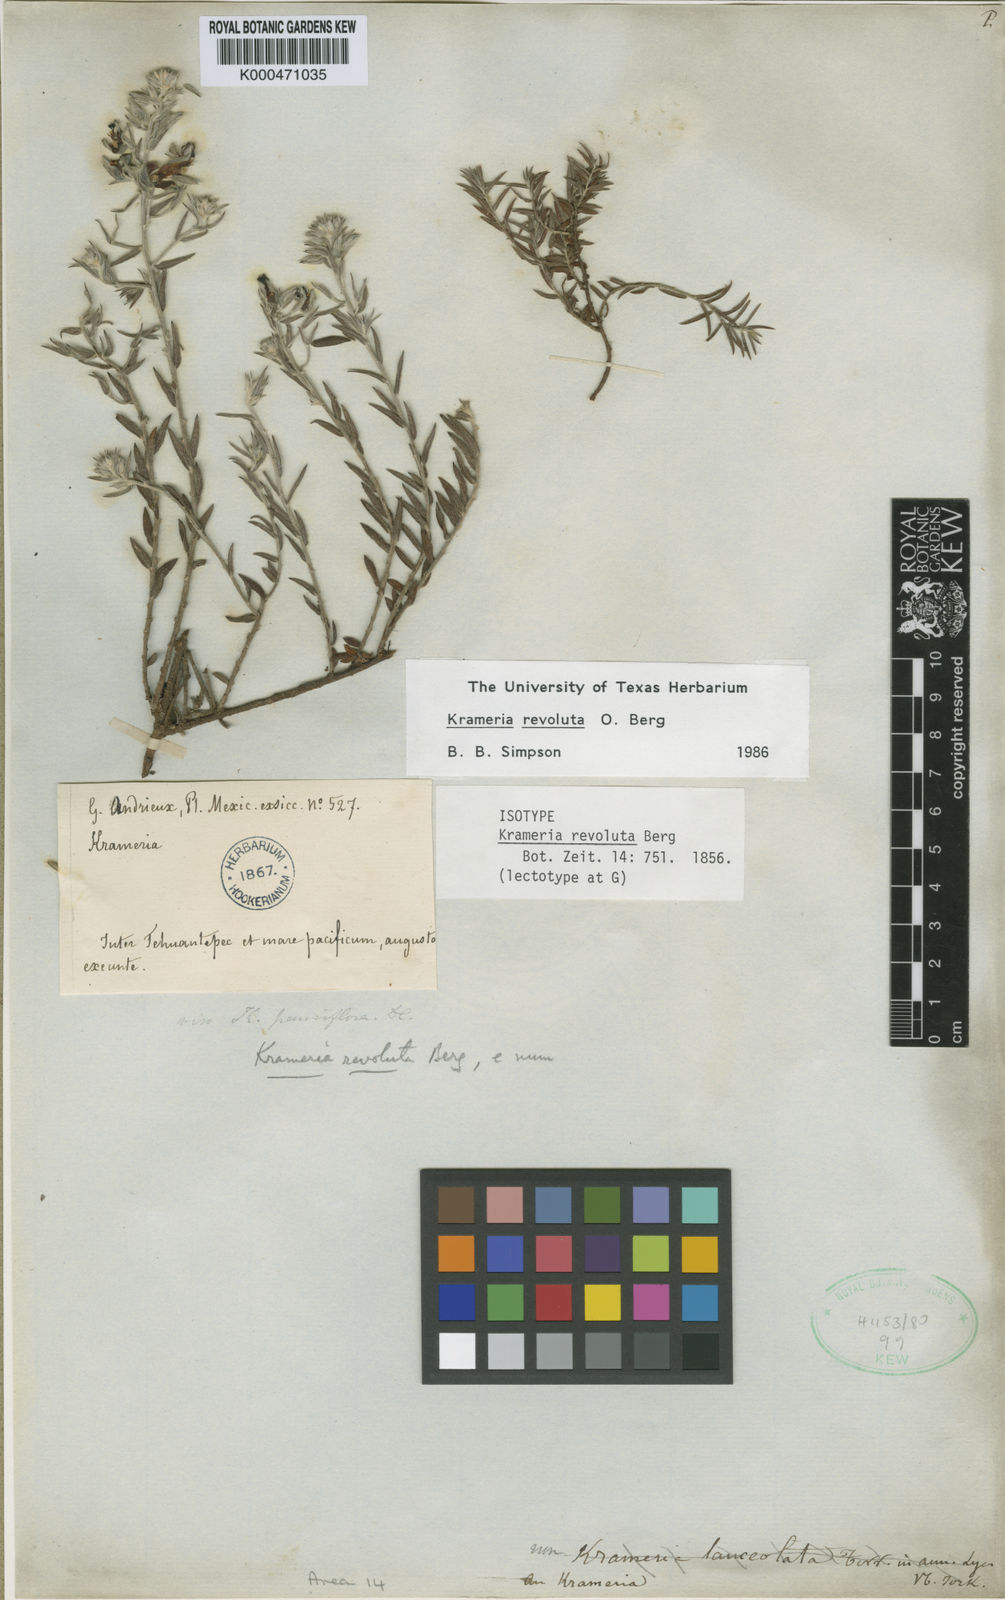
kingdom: Plantae
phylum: Tracheophyta
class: Magnoliopsida
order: Zygophyllales
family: Krameriaceae
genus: Krameria
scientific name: Krameria revoluta
